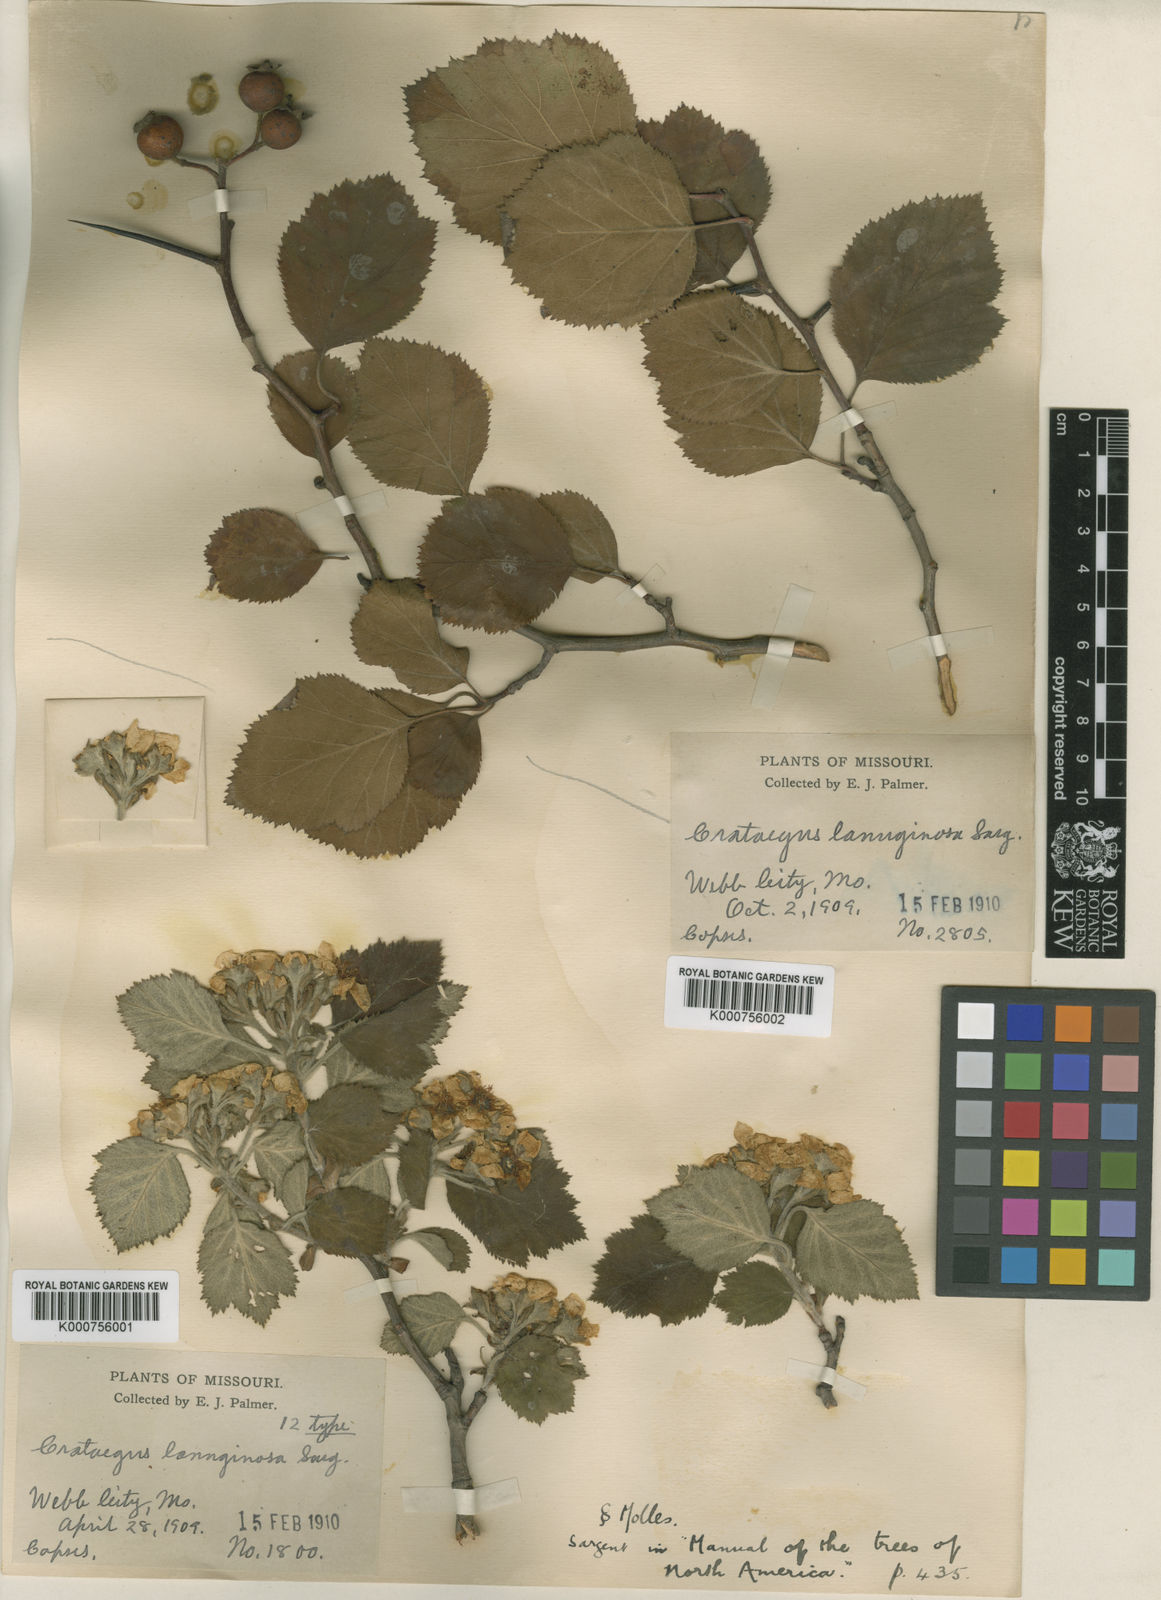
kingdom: Plantae
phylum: Tracheophyta
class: Magnoliopsida
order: Rosales
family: Rosaceae
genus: Crataegus
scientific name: Crataegus lanuginosa
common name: Woolly hawthorn
